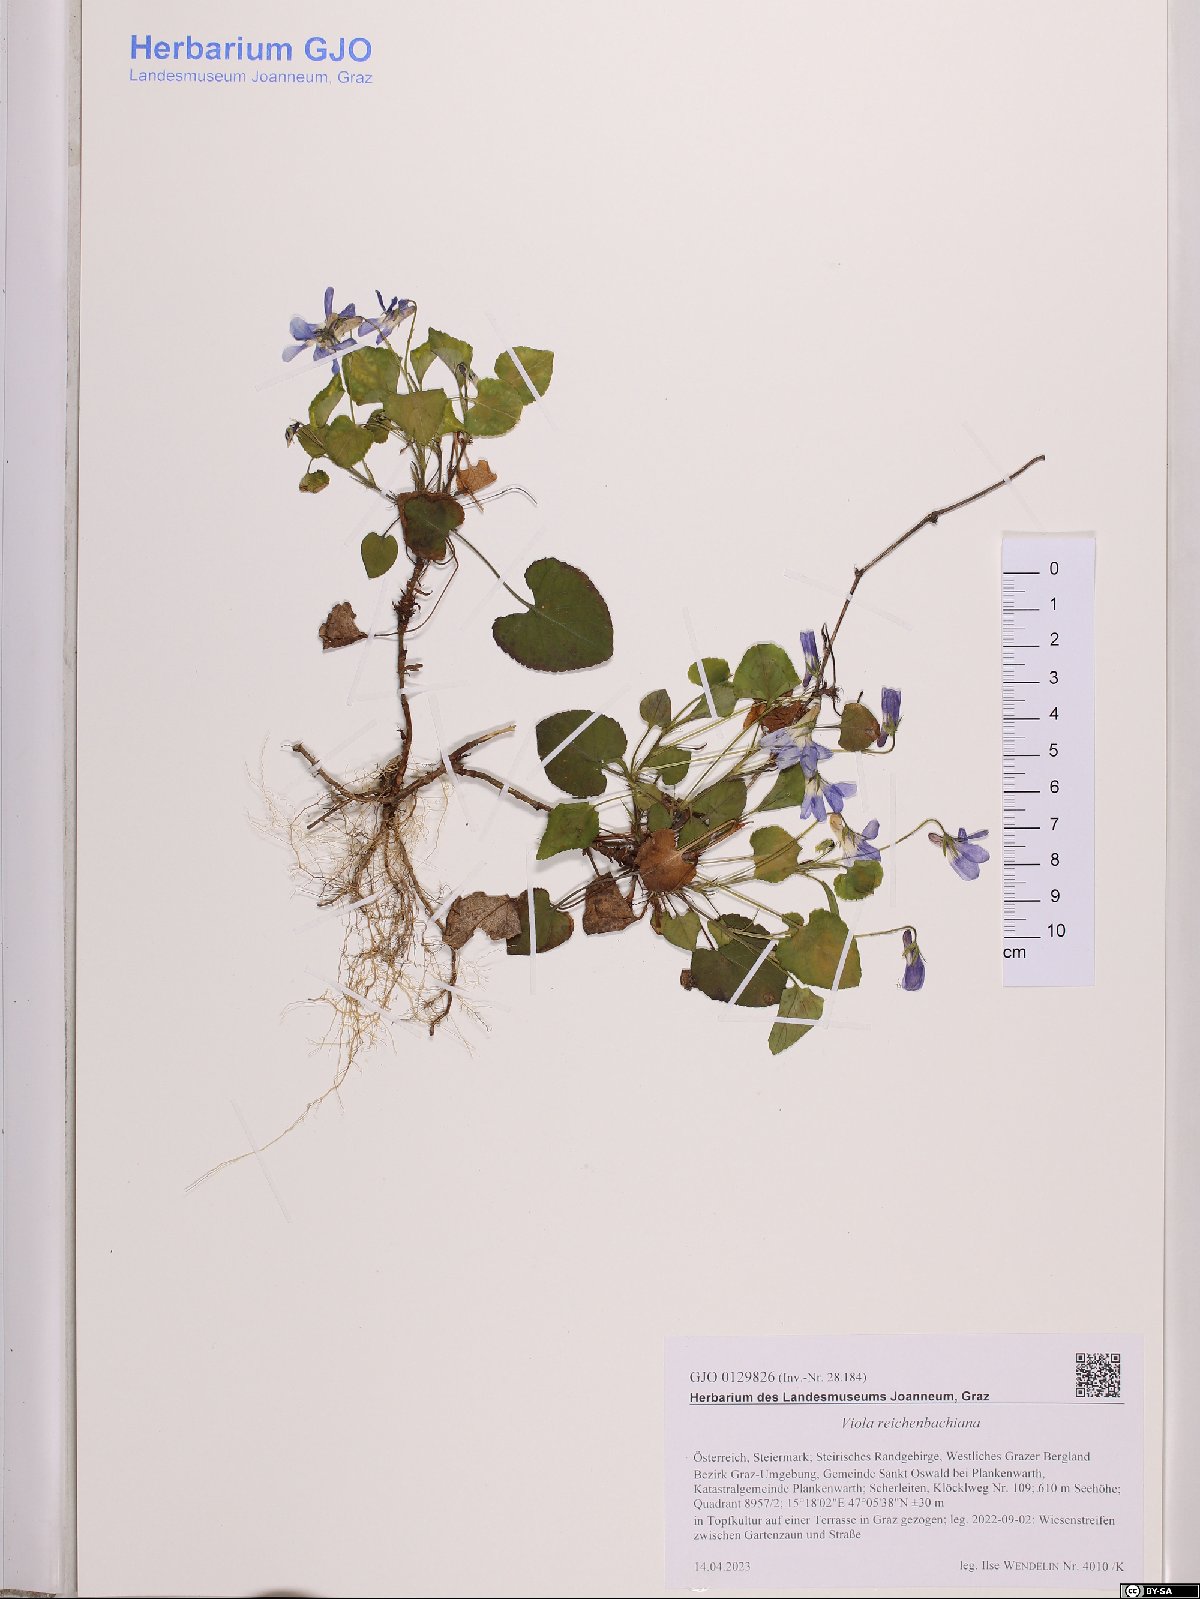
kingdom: Plantae
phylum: Tracheophyta
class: Magnoliopsida
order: Malpighiales
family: Violaceae
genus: Viola
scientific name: Viola reichenbachiana
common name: Early dog-violet
